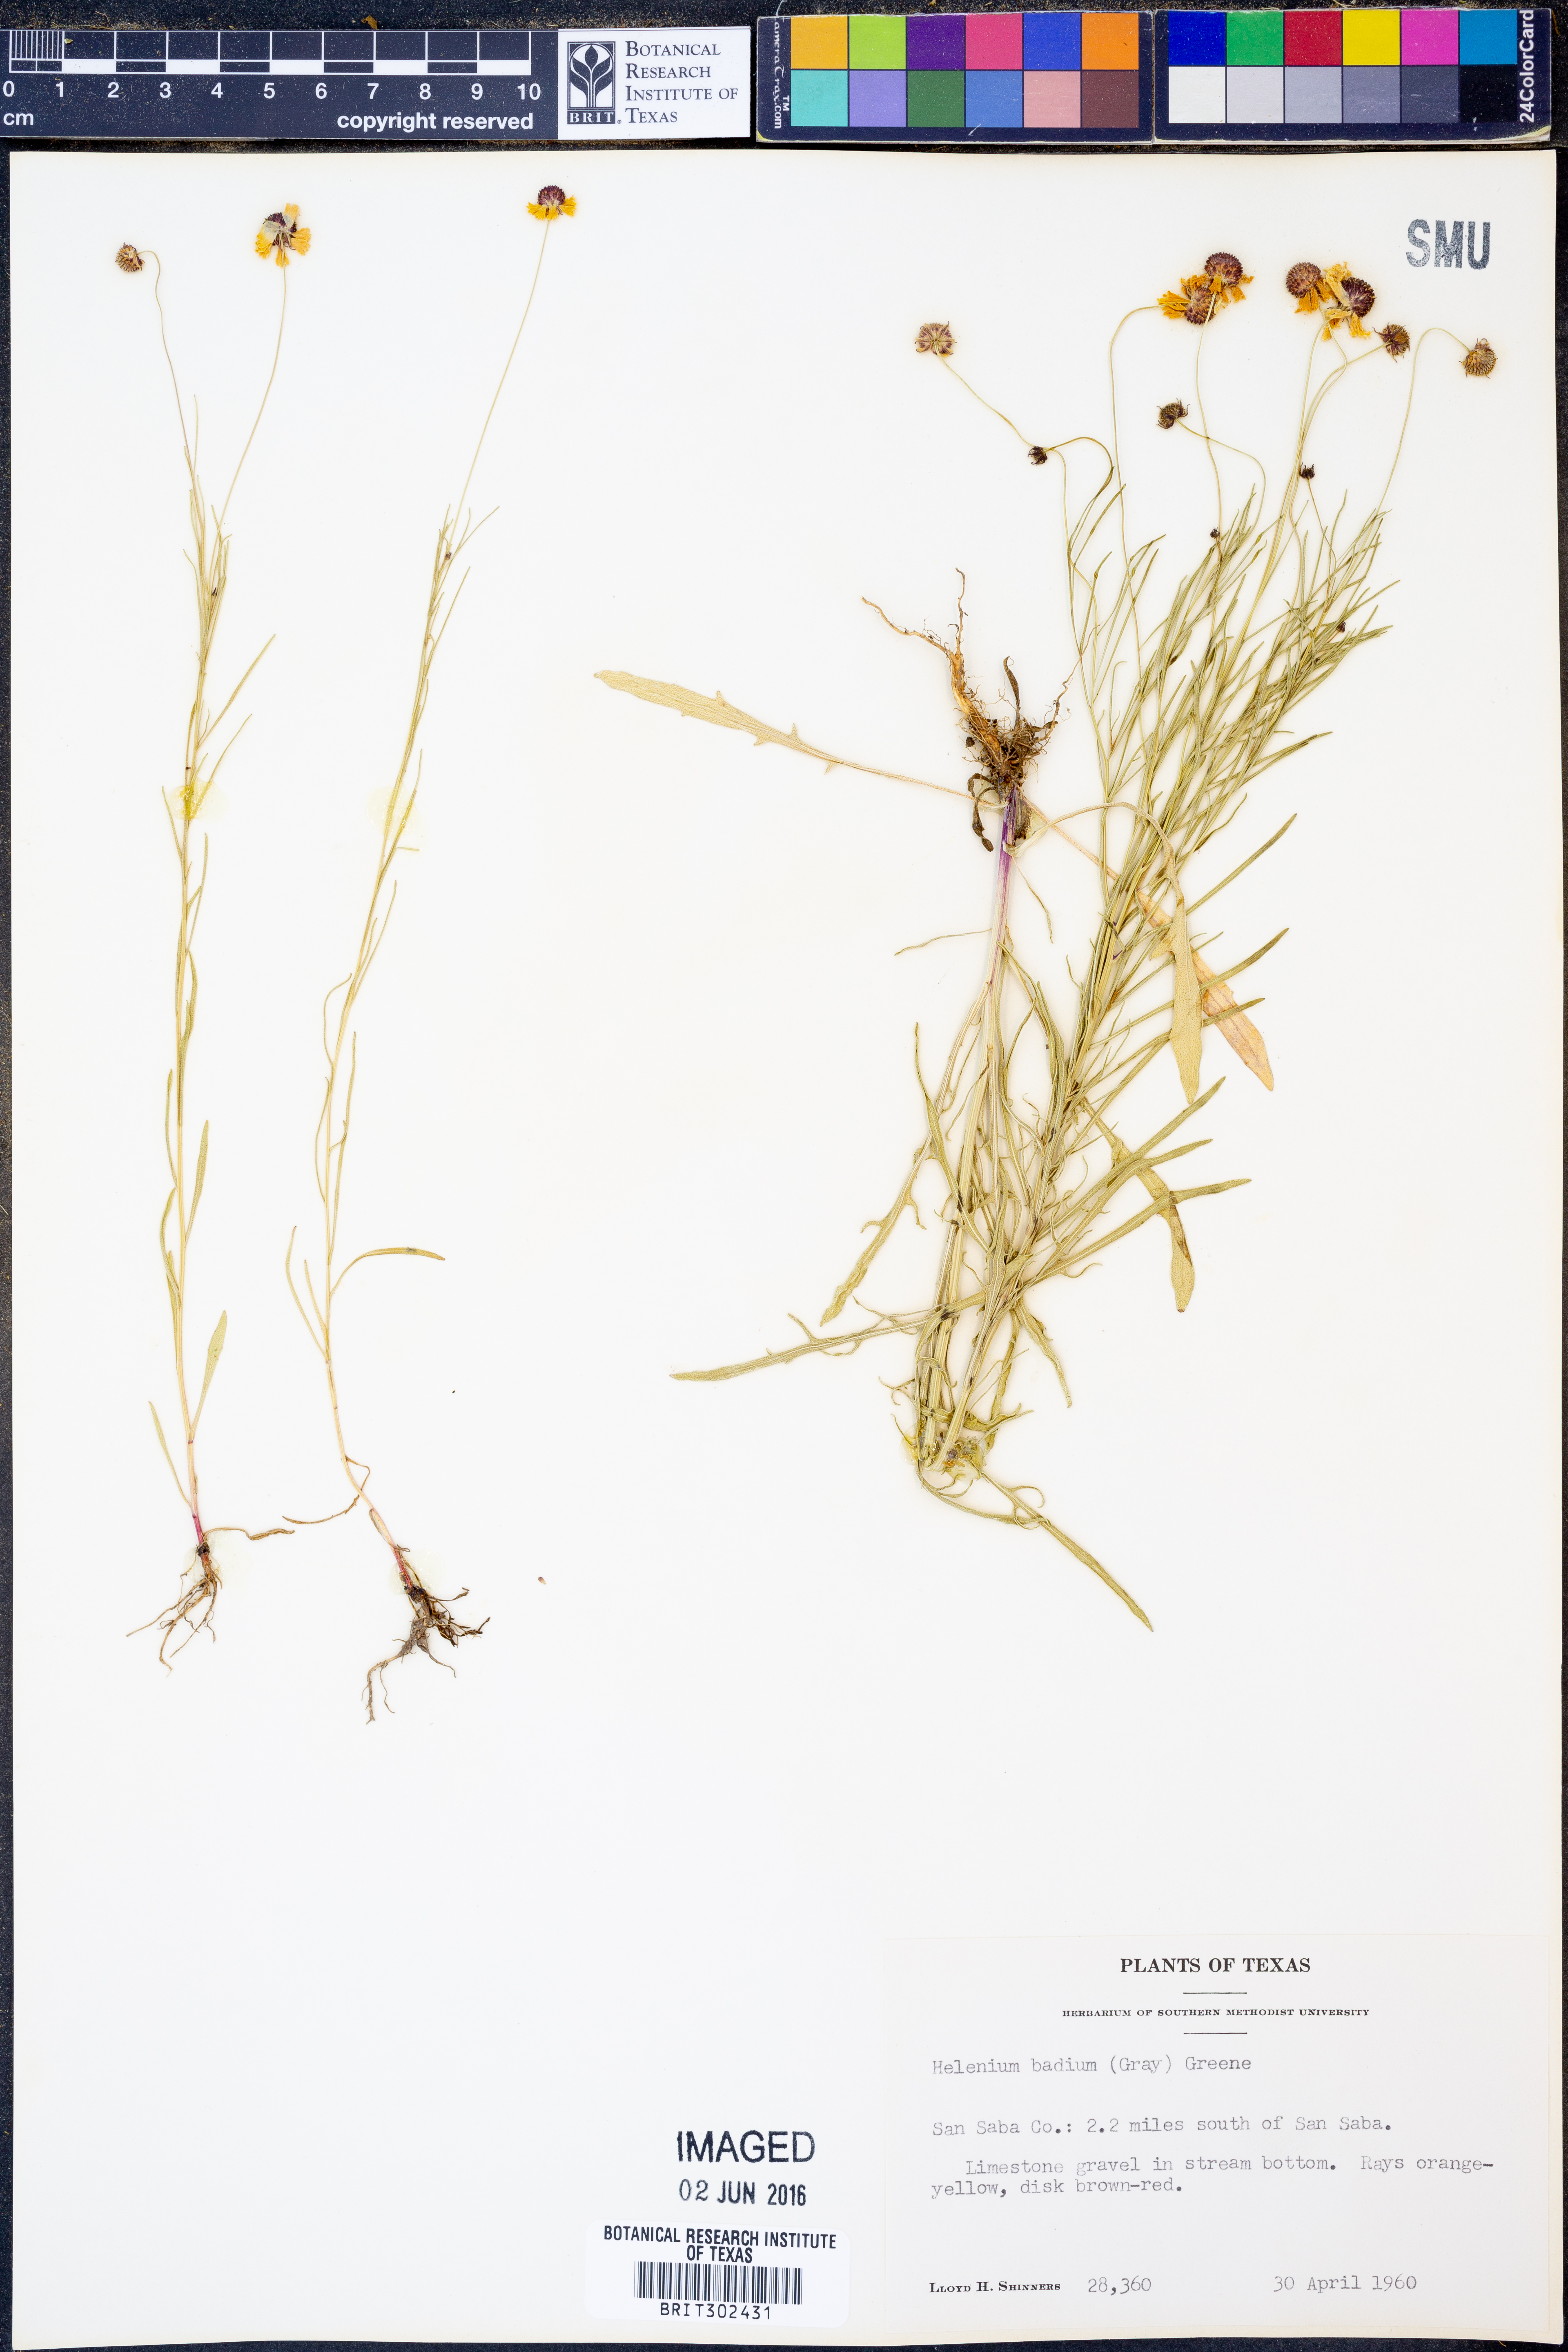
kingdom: Plantae
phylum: Tracheophyta
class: Magnoliopsida
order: Asterales
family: Asteraceae
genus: Helenium
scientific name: Helenium amarum
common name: Bitter sneezeweed
